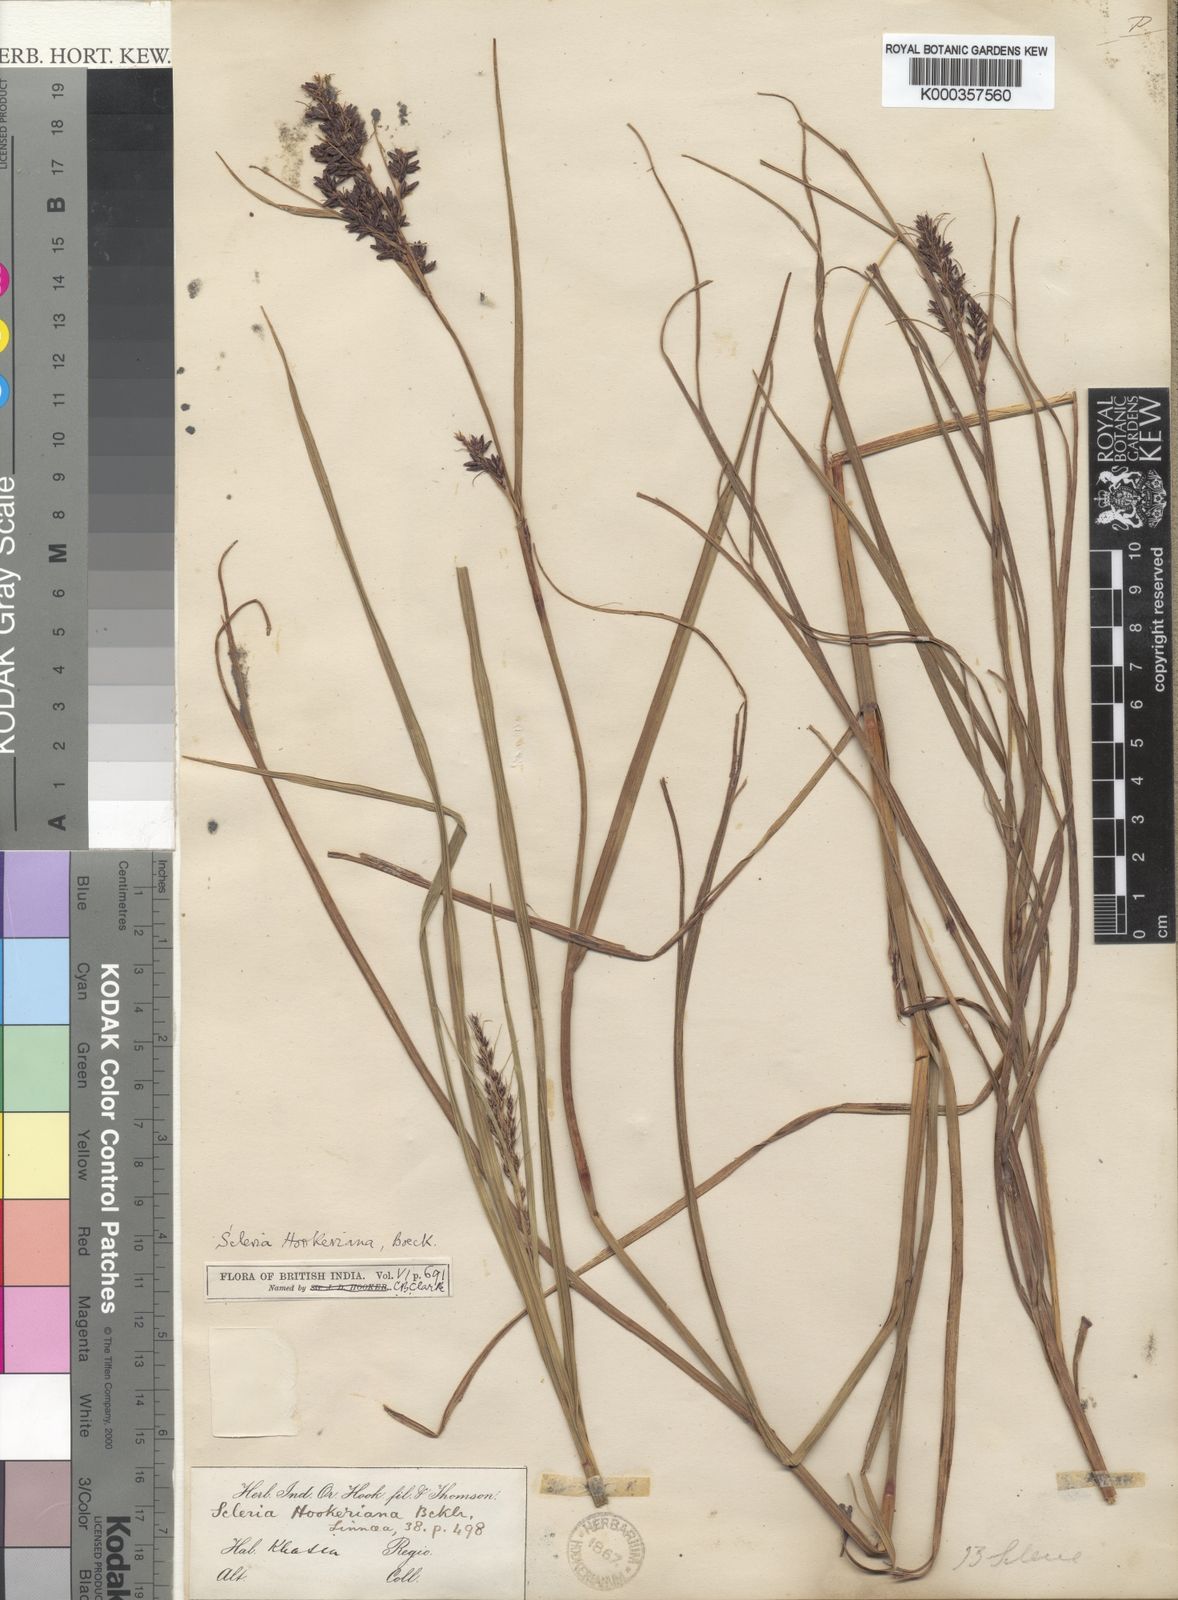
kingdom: Plantae
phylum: Tracheophyta
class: Liliopsida
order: Poales
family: Cyperaceae
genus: Scleria
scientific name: Scleria terrestris
